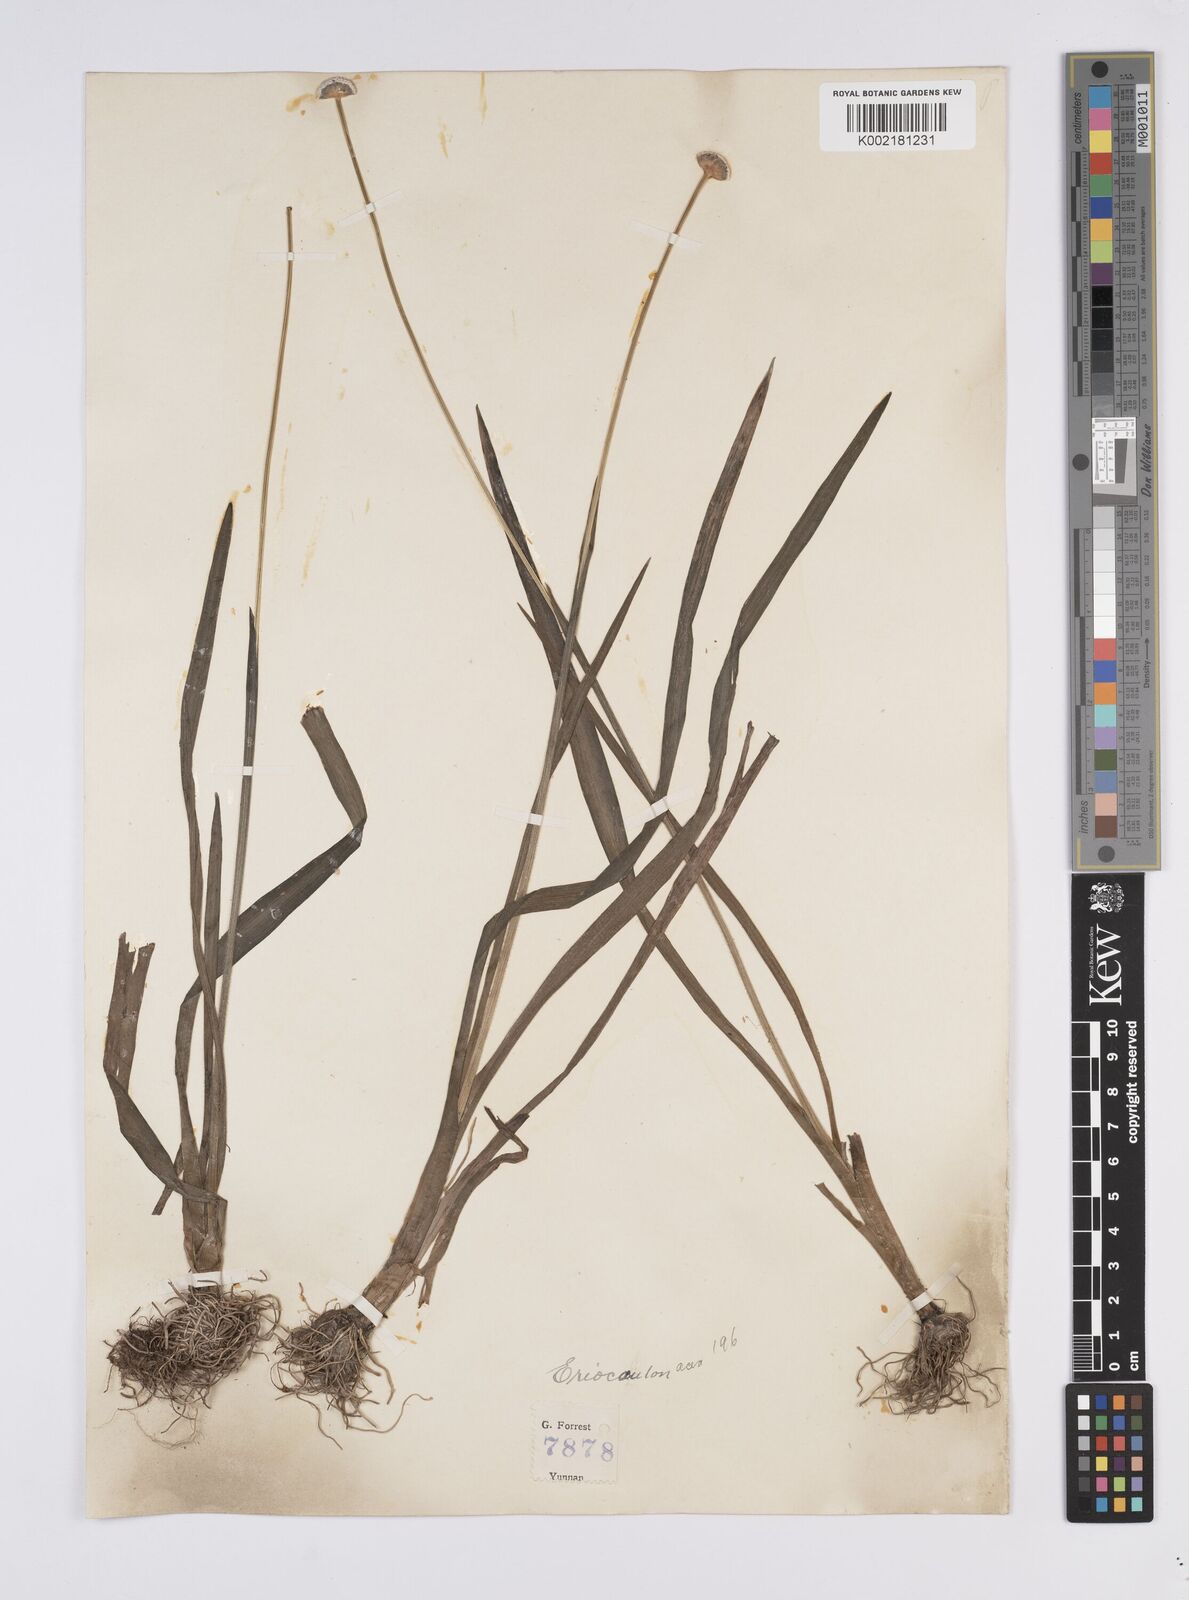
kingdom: Plantae
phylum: Tracheophyta
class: Liliopsida
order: Poales
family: Eriocaulaceae
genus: Eriocaulon
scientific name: Eriocaulon
